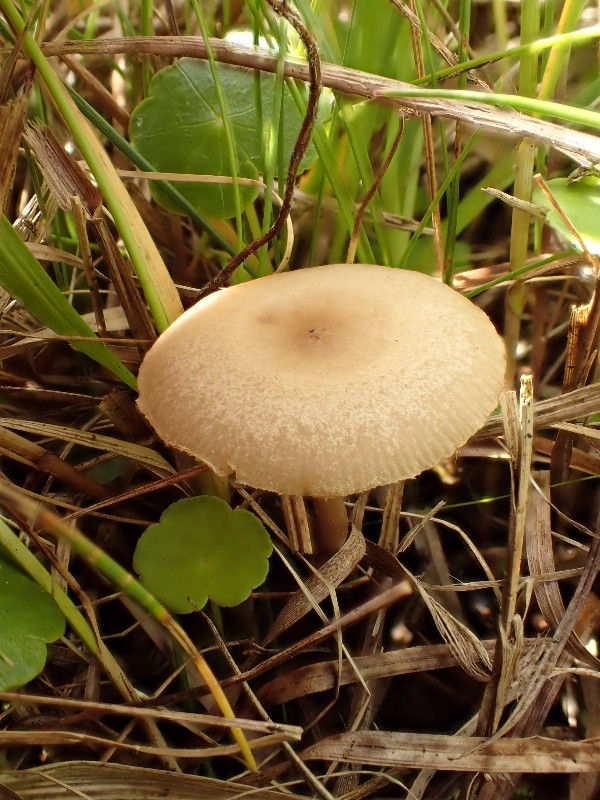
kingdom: Fungi
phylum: Basidiomycota
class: Agaricomycetes
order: Agaricales
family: Strophariaceae
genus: Agrocybe
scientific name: Agrocybe elatella
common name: mose-agerhat
